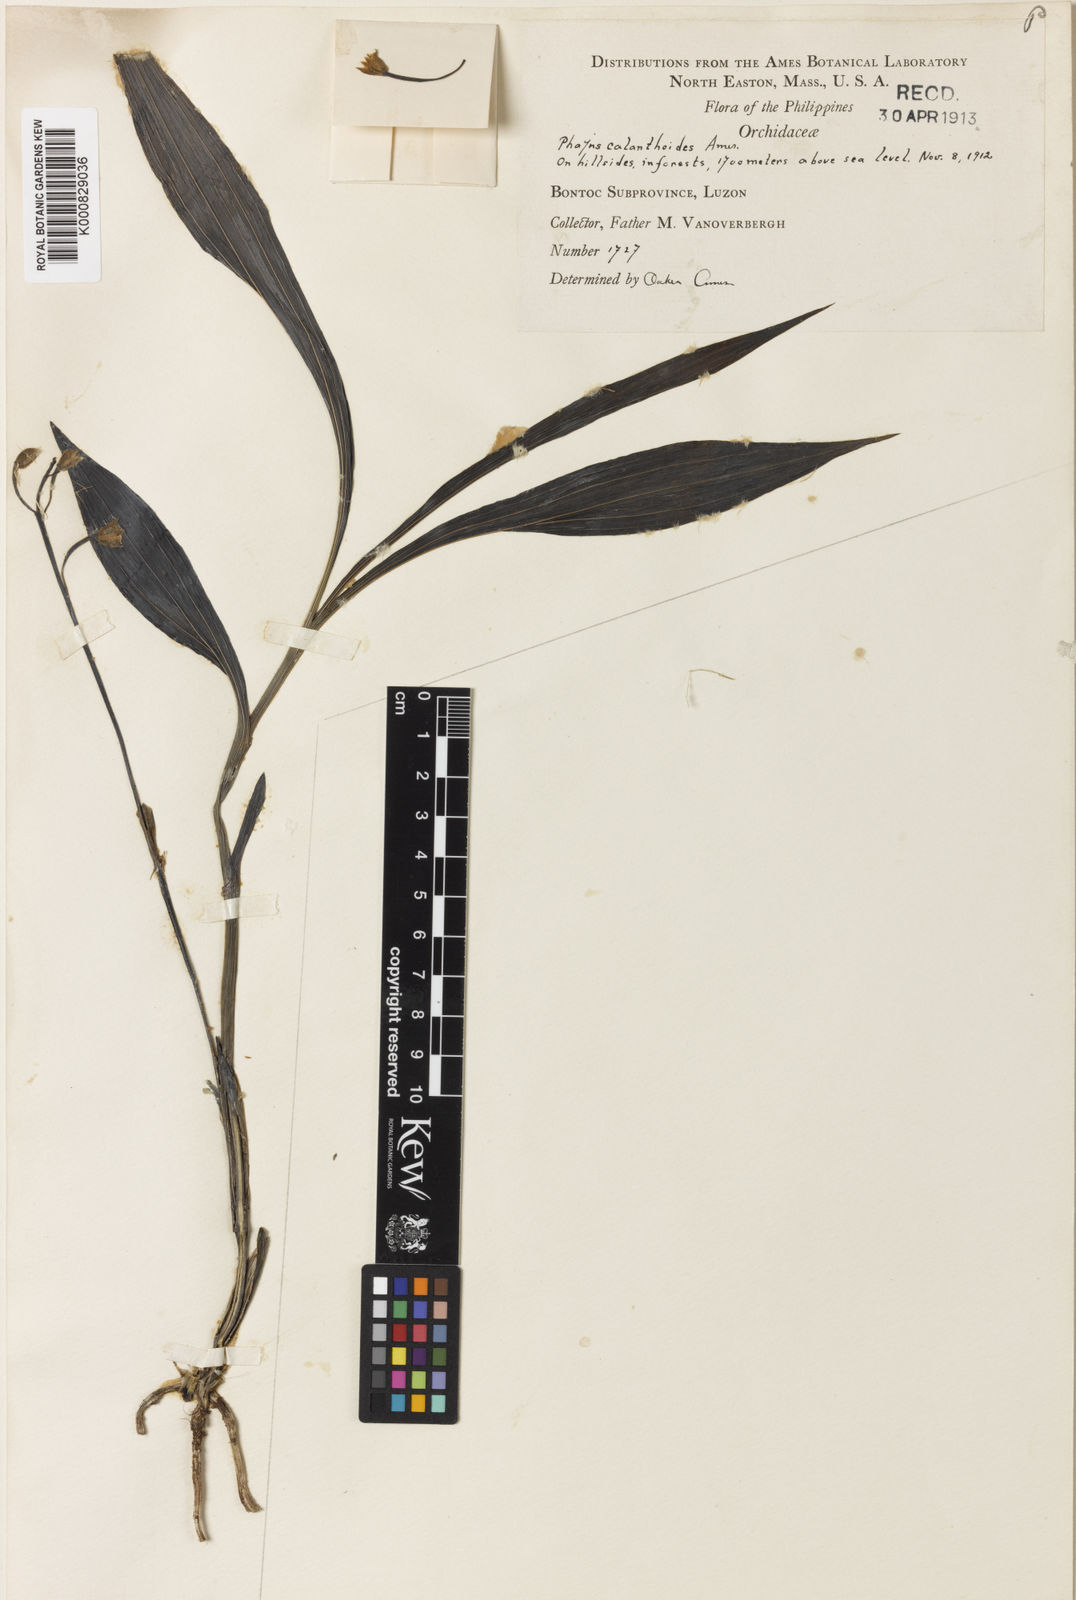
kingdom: Plantae
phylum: Tracheophyta
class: Liliopsida
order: Asparagales
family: Orchidaceae
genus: Calanthe
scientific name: Calanthe kooshunensis
